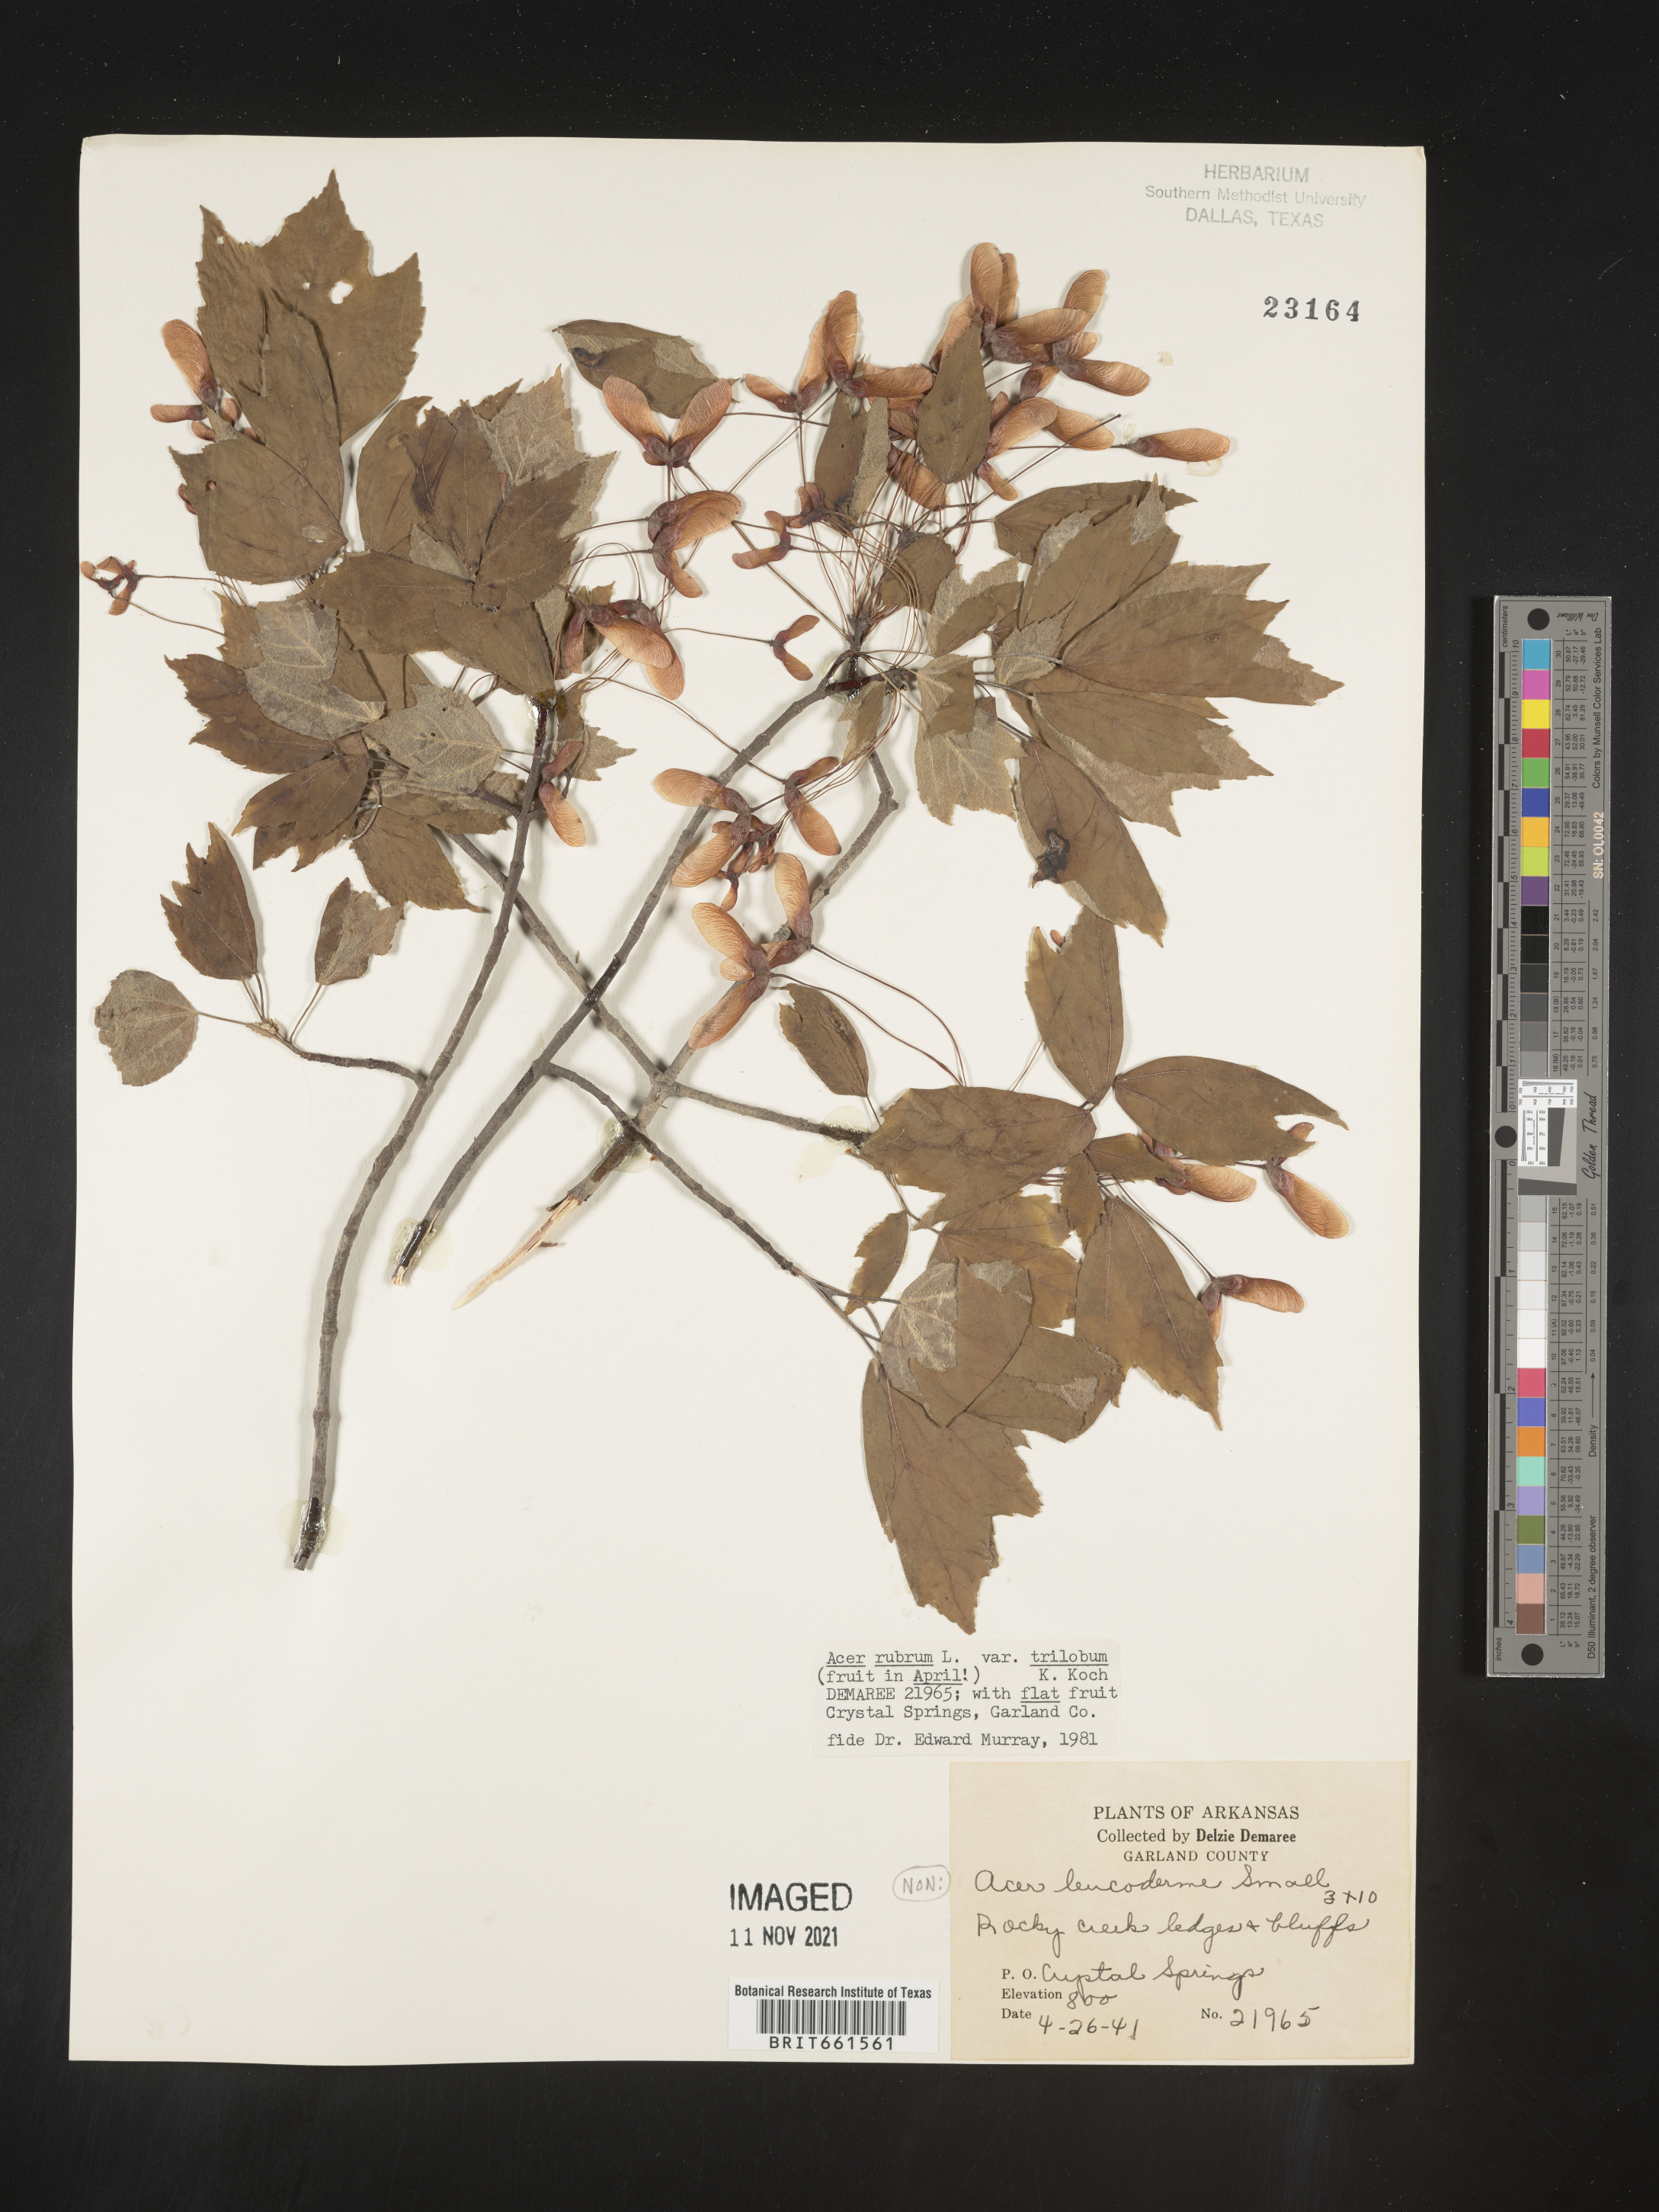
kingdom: Plantae
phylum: Tracheophyta
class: Magnoliopsida
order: Sapindales
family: Sapindaceae
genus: Acer
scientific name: Acer rubrum
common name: Red maple
